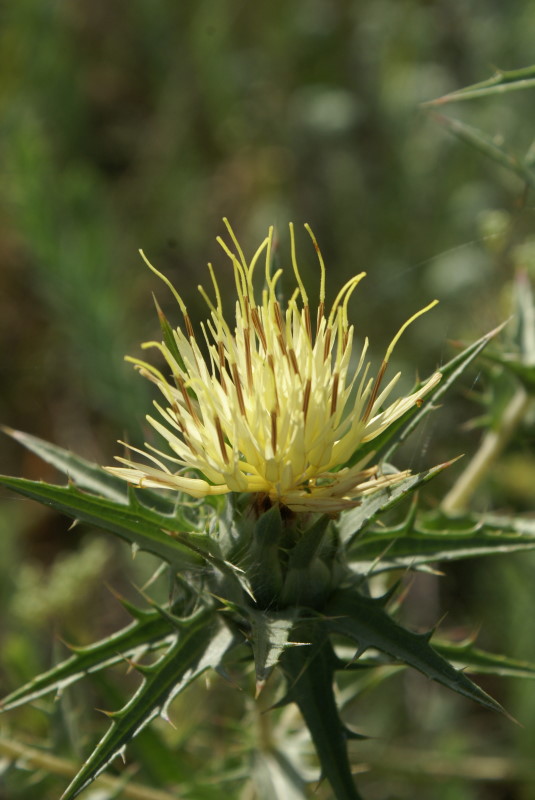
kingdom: Plantae
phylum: Tracheophyta
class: Magnoliopsida
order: Asterales
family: Asteraceae
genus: Carthamus
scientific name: Carthamus lanatus
